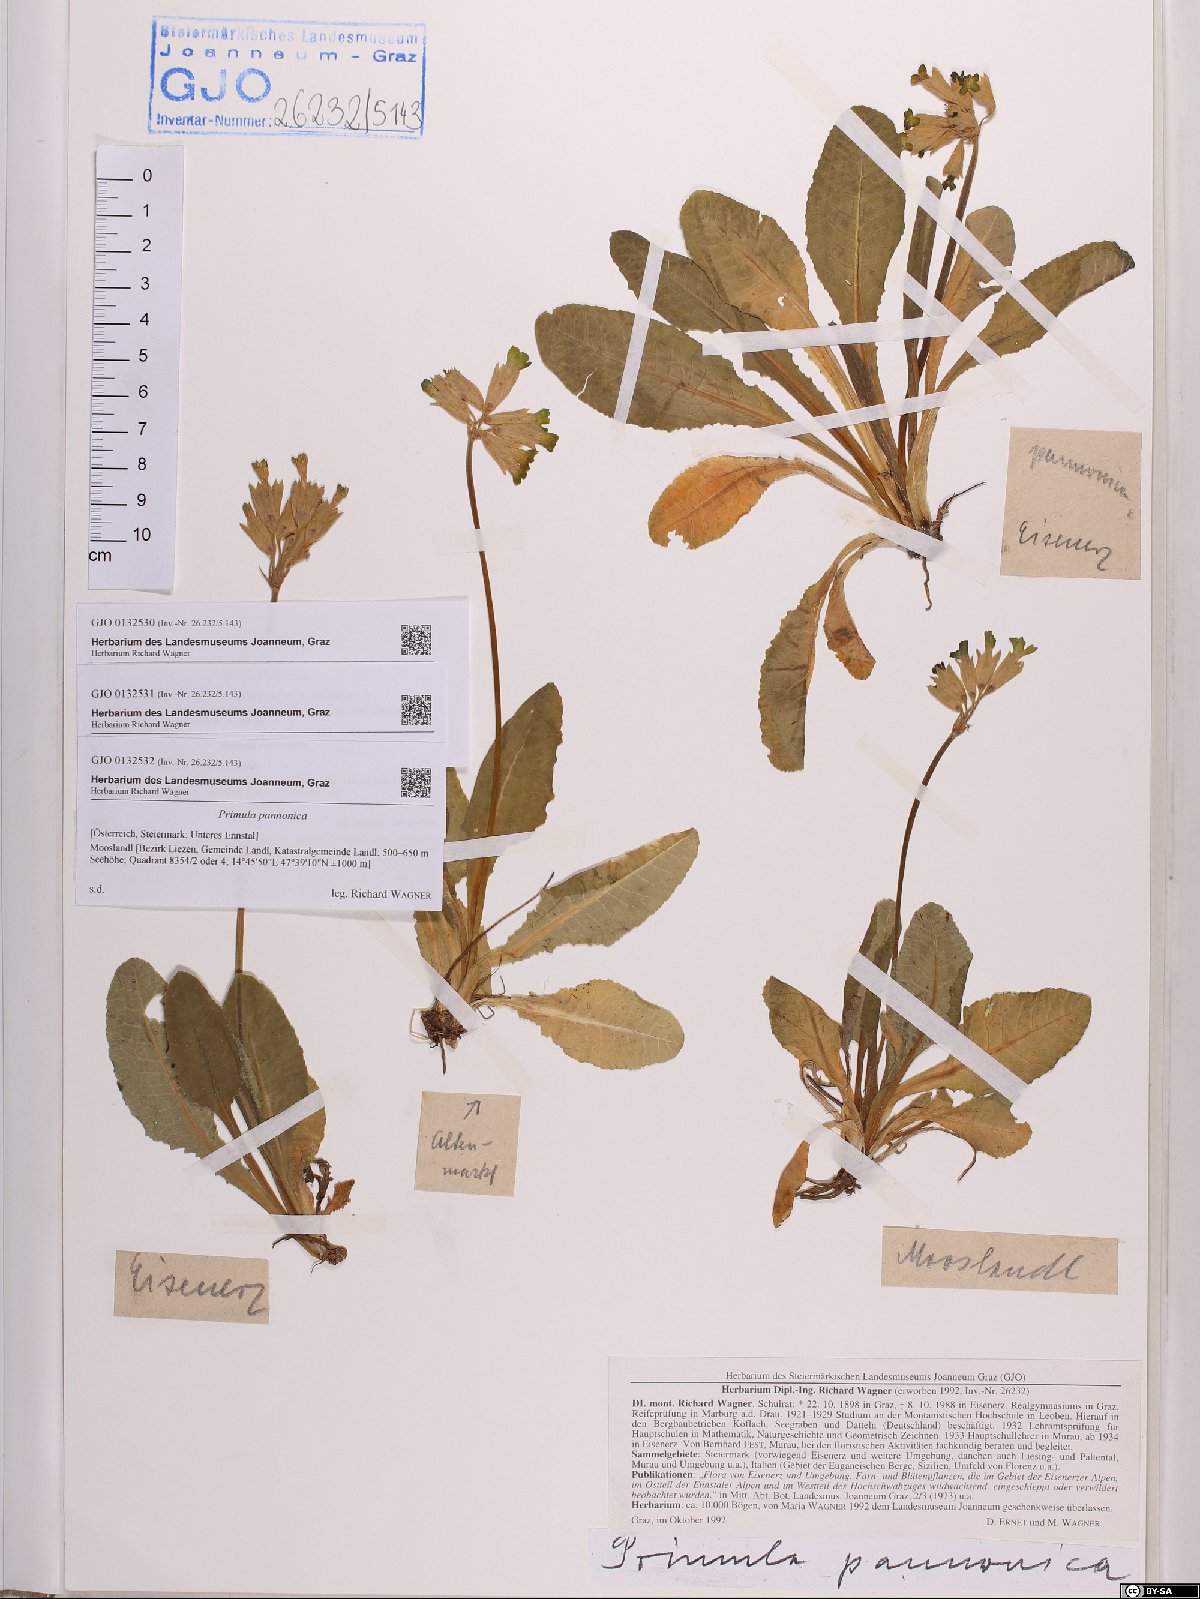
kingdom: Plantae
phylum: Tracheophyta
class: Magnoliopsida
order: Ericales
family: Primulaceae
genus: Primula
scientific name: Primula veris
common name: Cowslip
